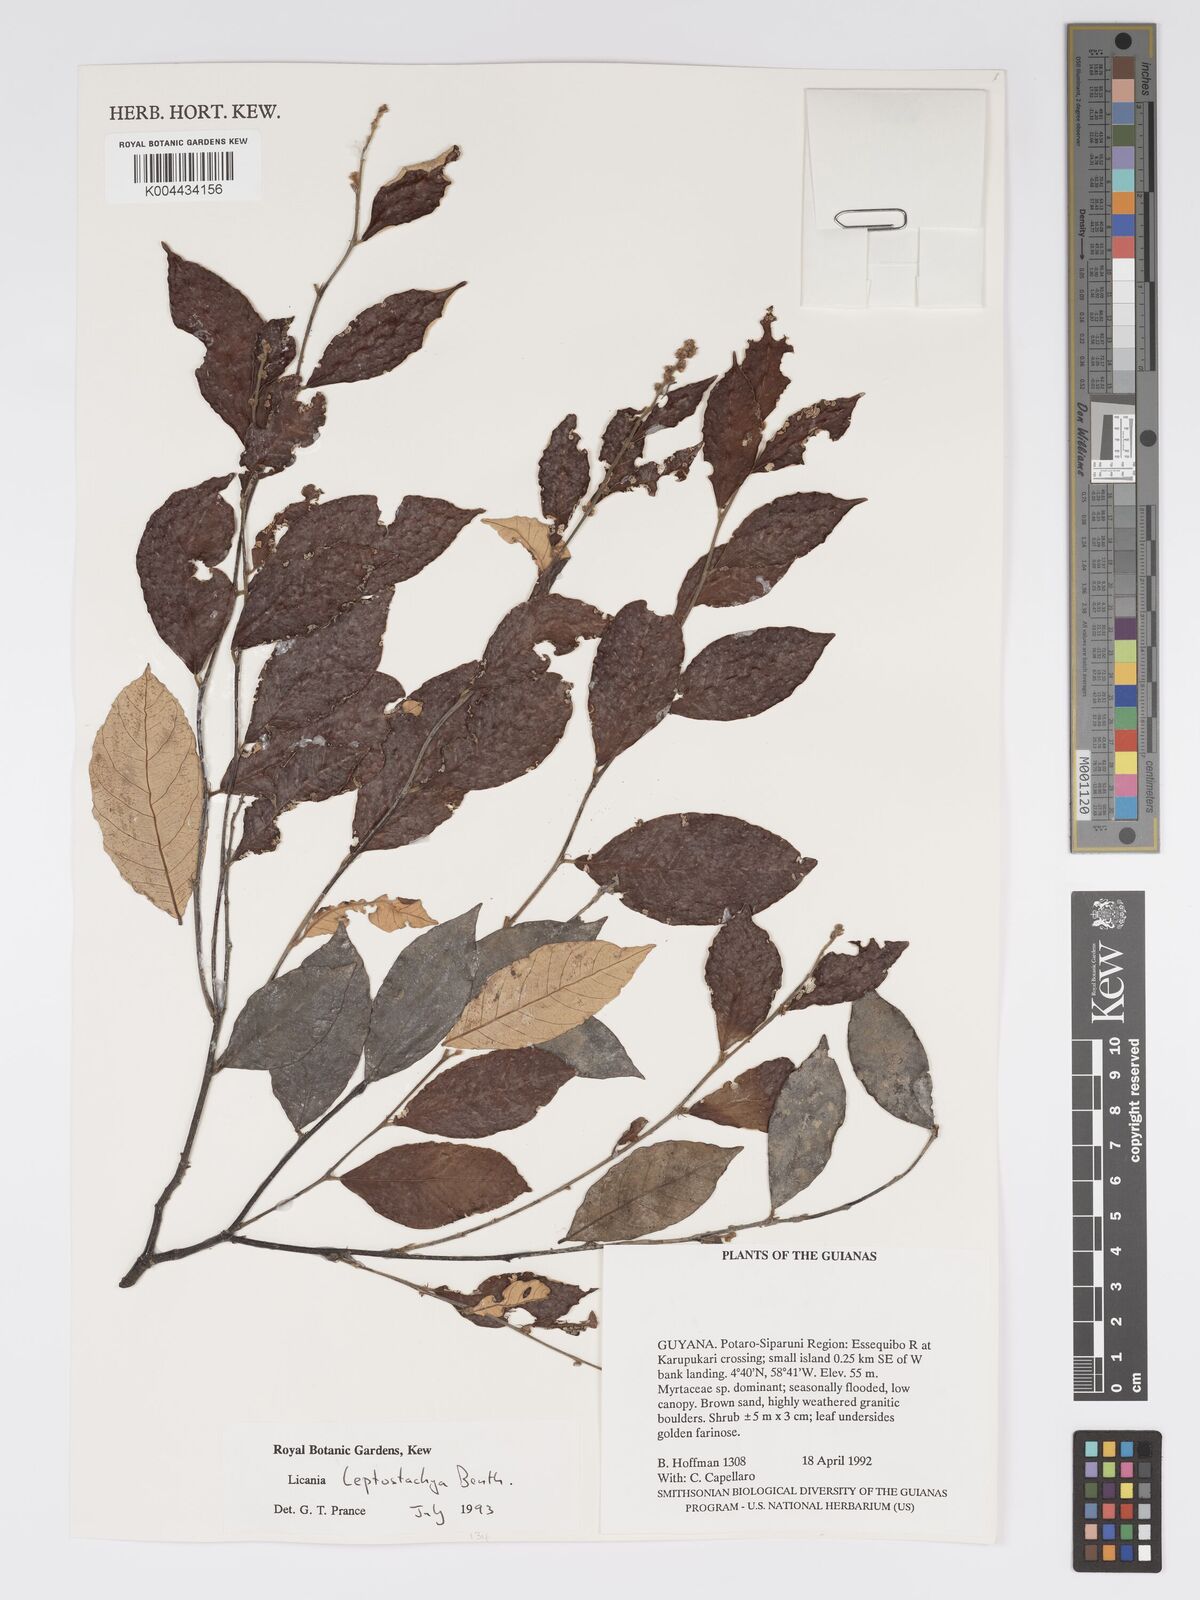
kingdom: Plantae
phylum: Tracheophyta
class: Magnoliopsida
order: Malpighiales
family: Chrysobalanaceae
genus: Licania
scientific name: Licania leptostachya
